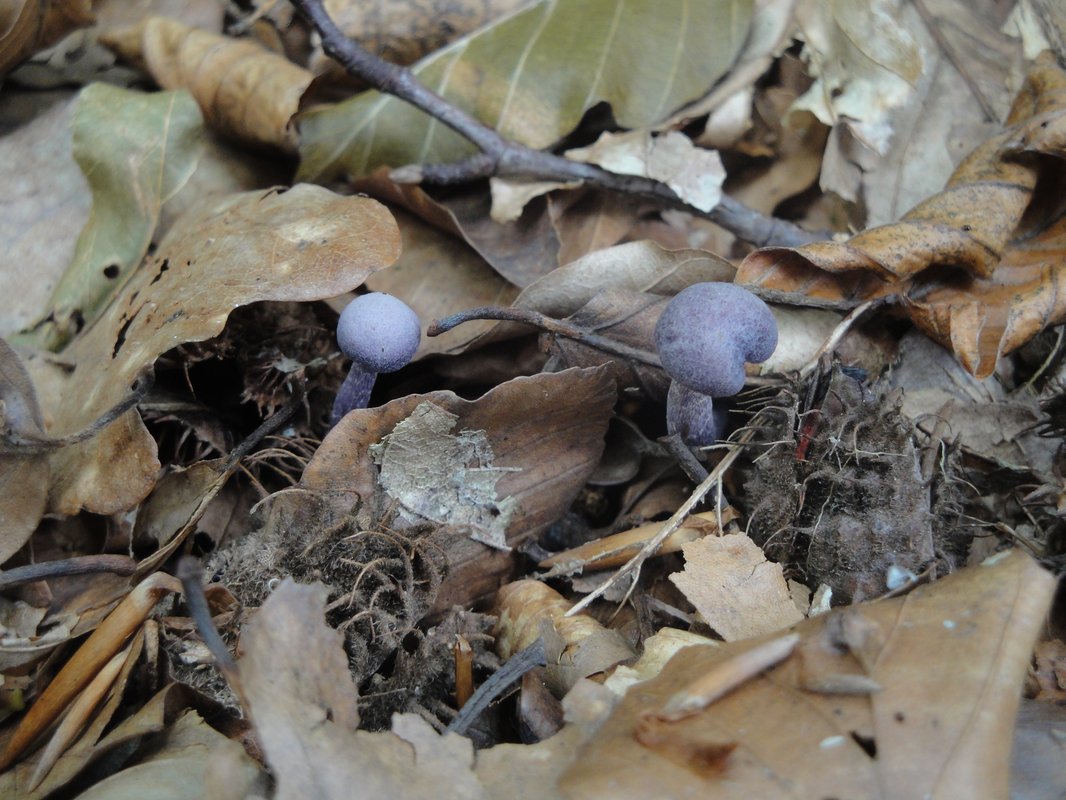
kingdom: Fungi
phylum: Basidiomycota
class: Agaricomycetes
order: Agaricales
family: Hydnangiaceae
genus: Laccaria
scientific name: Laccaria amethystina
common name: violet ametysthat
